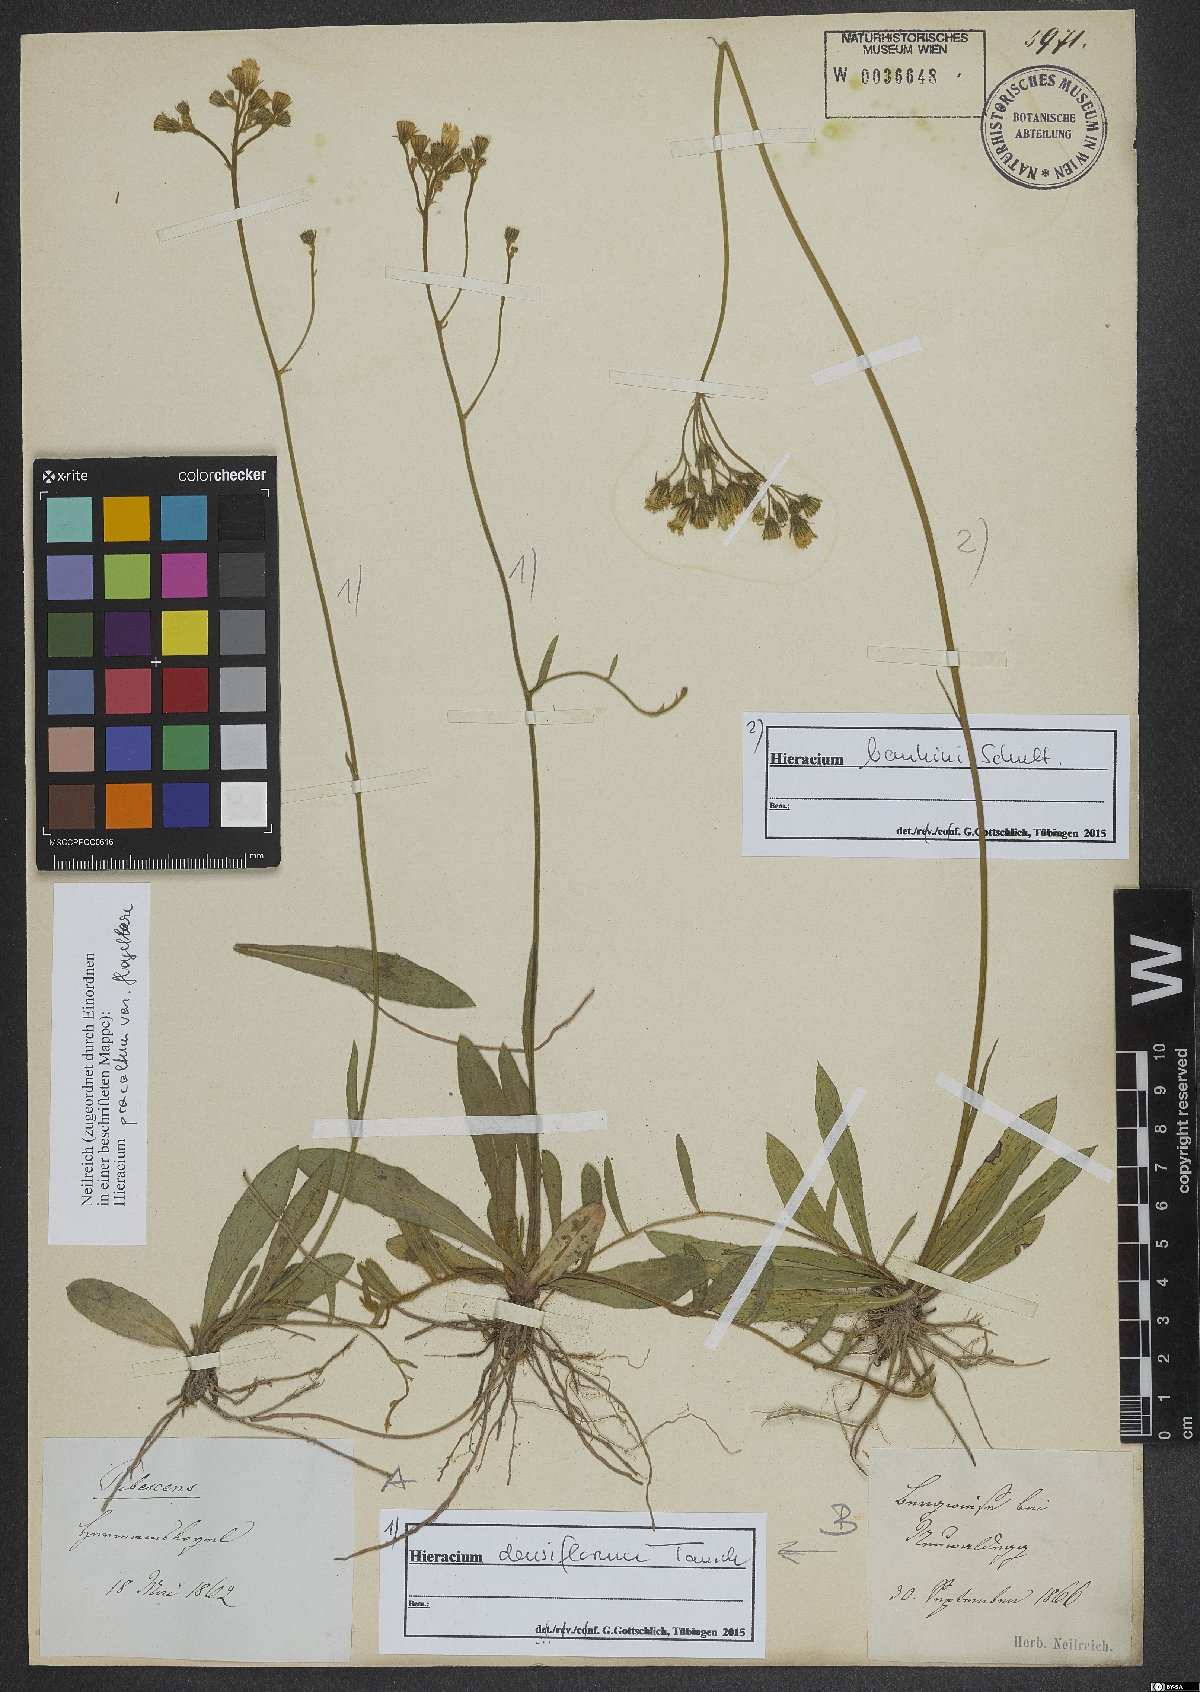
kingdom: Plantae
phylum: Tracheophyta
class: Magnoliopsida
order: Asterales
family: Asteraceae
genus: Pilosella
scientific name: Pilosella densiflora
